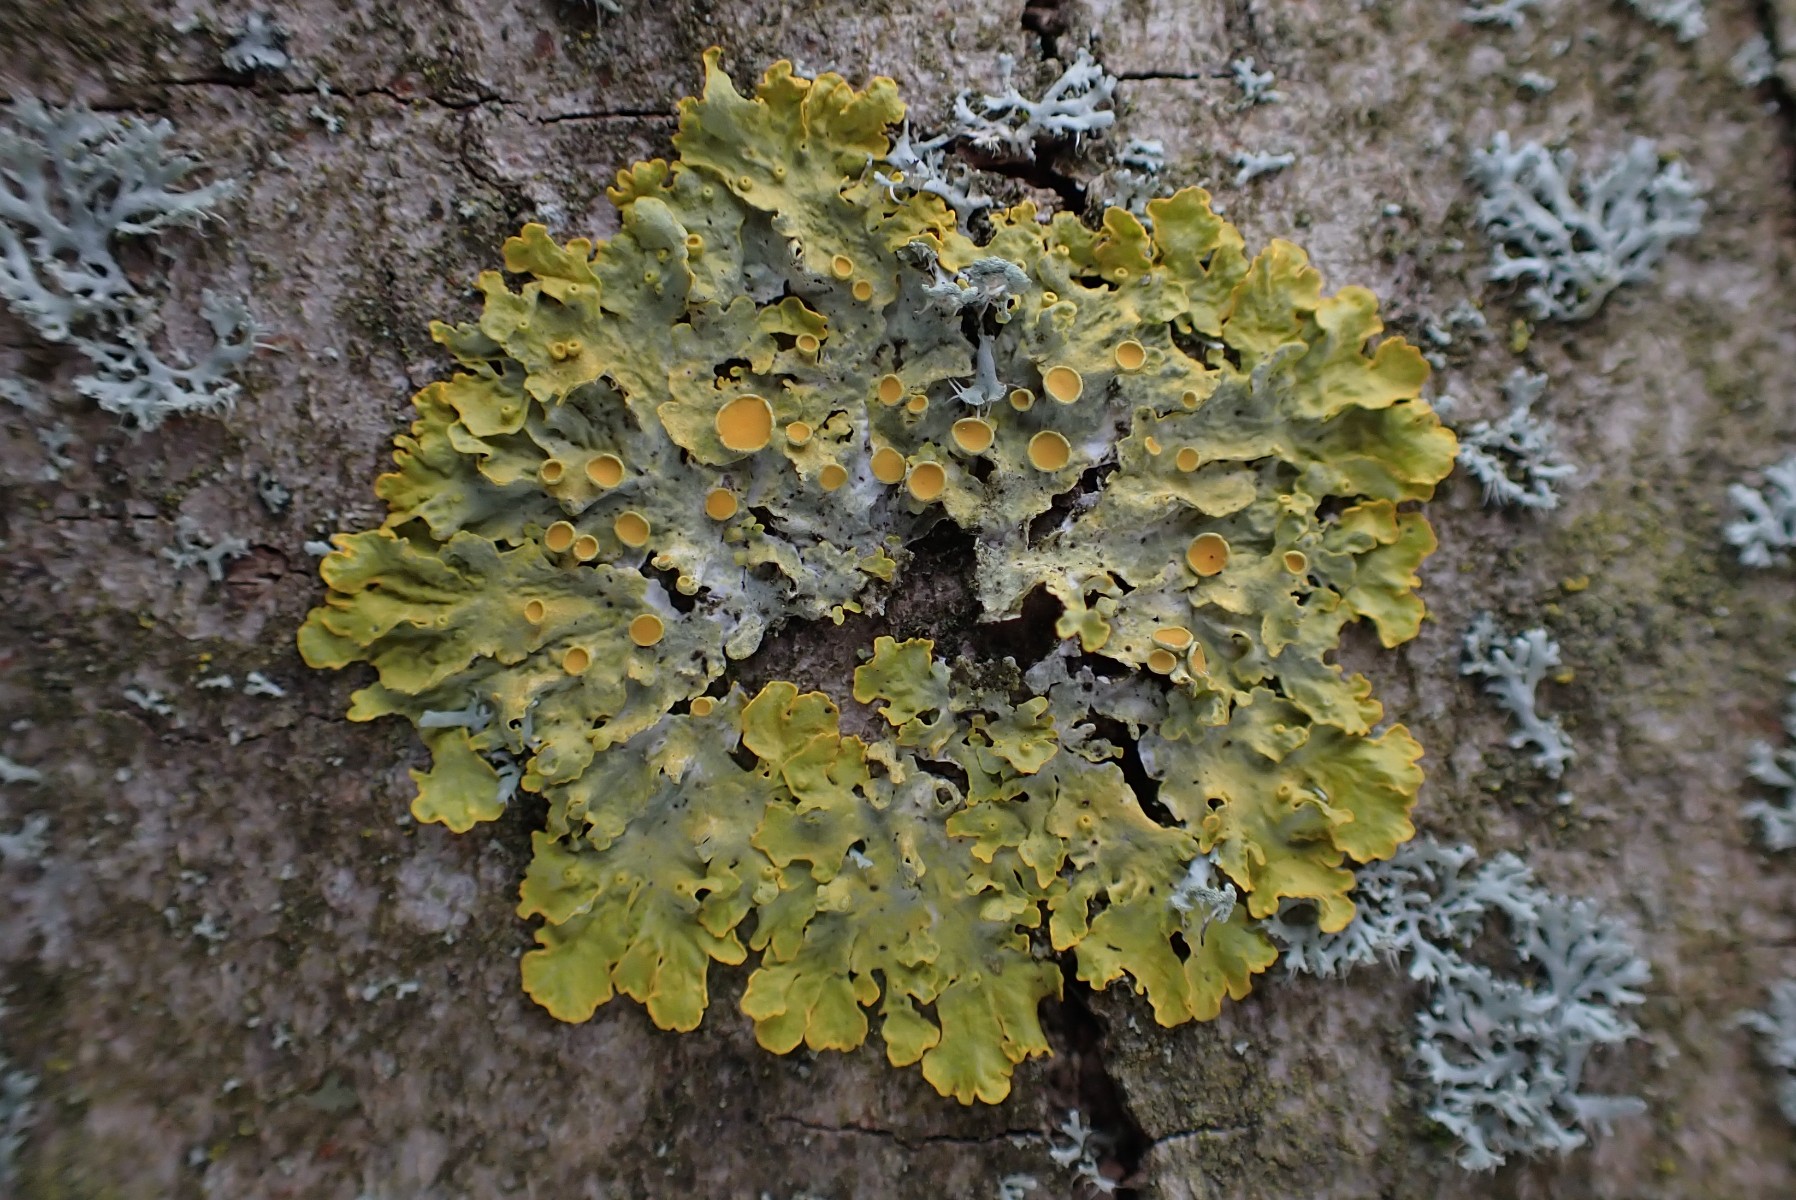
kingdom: Fungi
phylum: Ascomycota
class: Lecanoromycetes
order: Teloschistales
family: Teloschistaceae
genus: Xanthoria
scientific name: Xanthoria parietina
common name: almindelig væggelav
